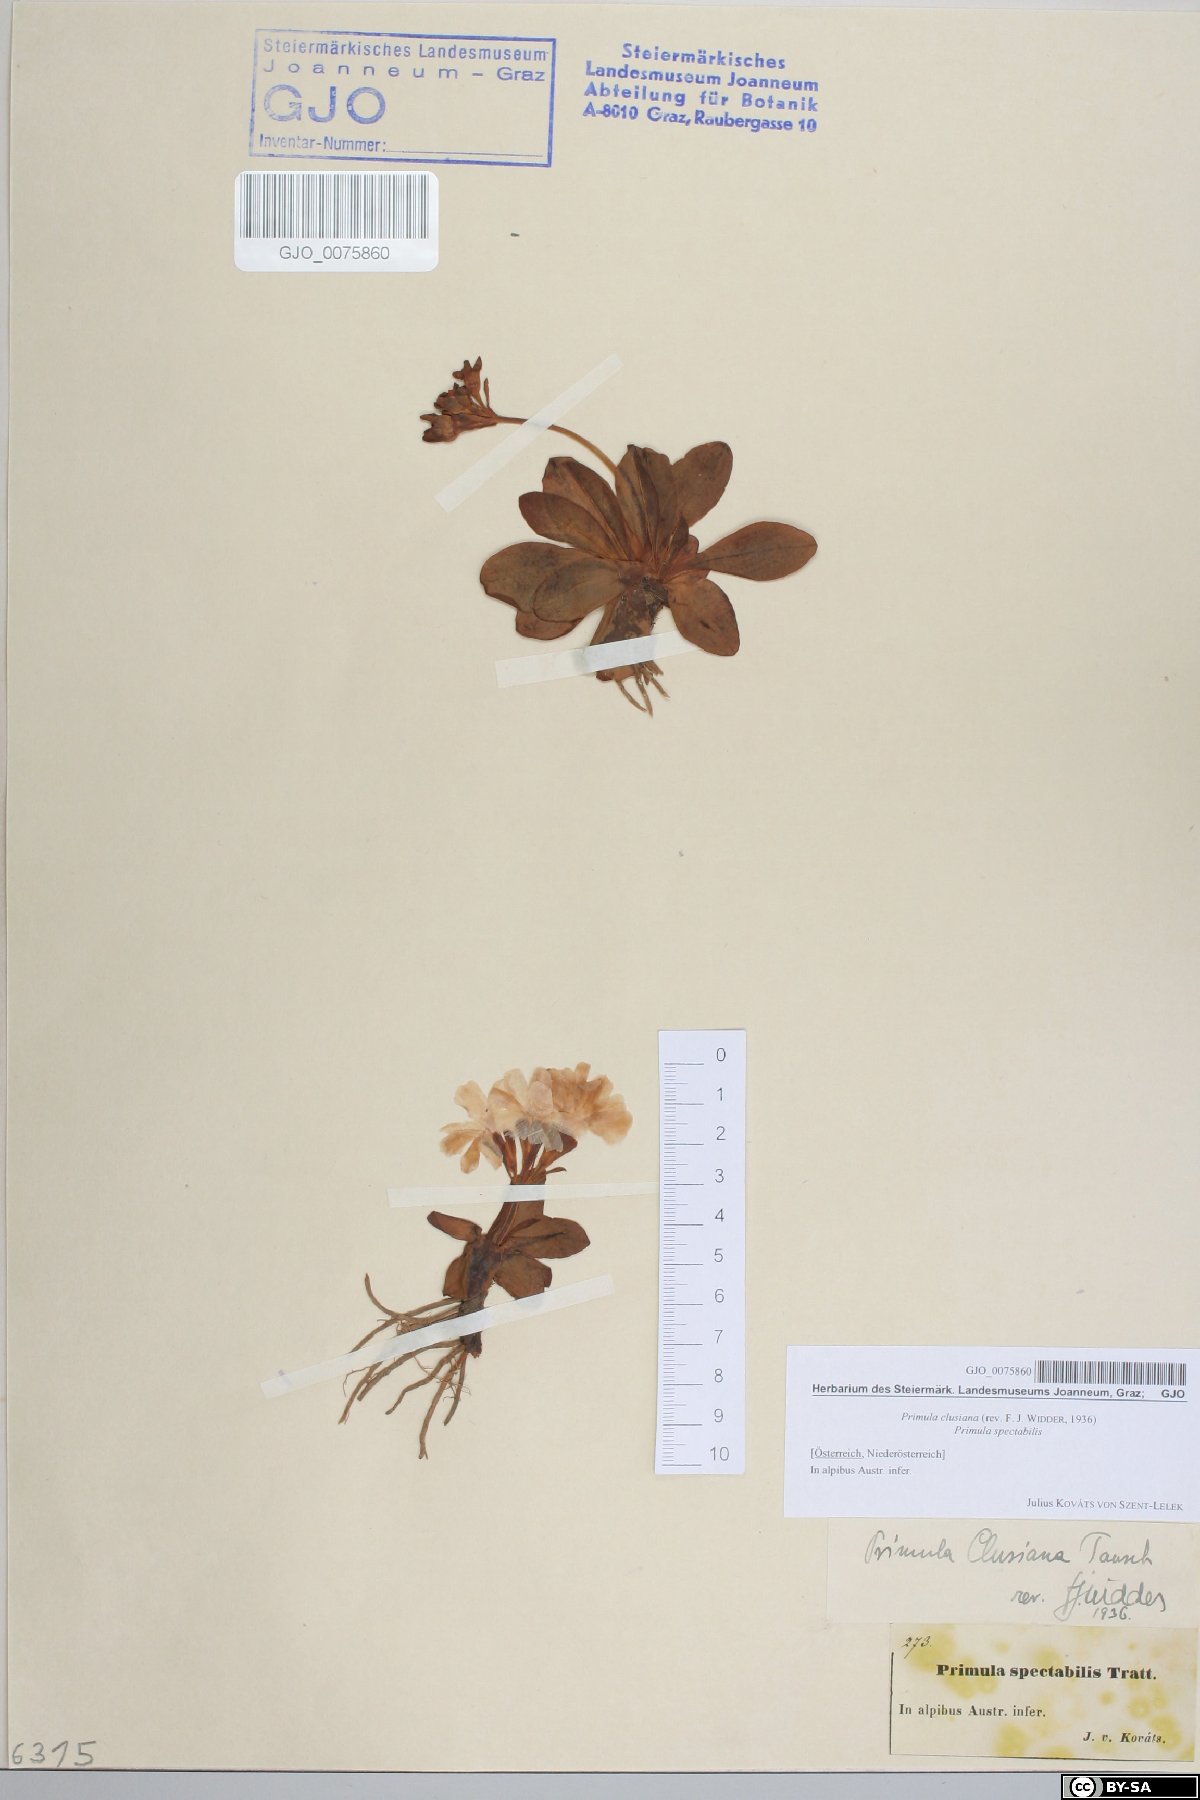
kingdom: Plantae
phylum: Tracheophyta
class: Magnoliopsida
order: Ericales
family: Primulaceae
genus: Primula
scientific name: Primula clusiana
